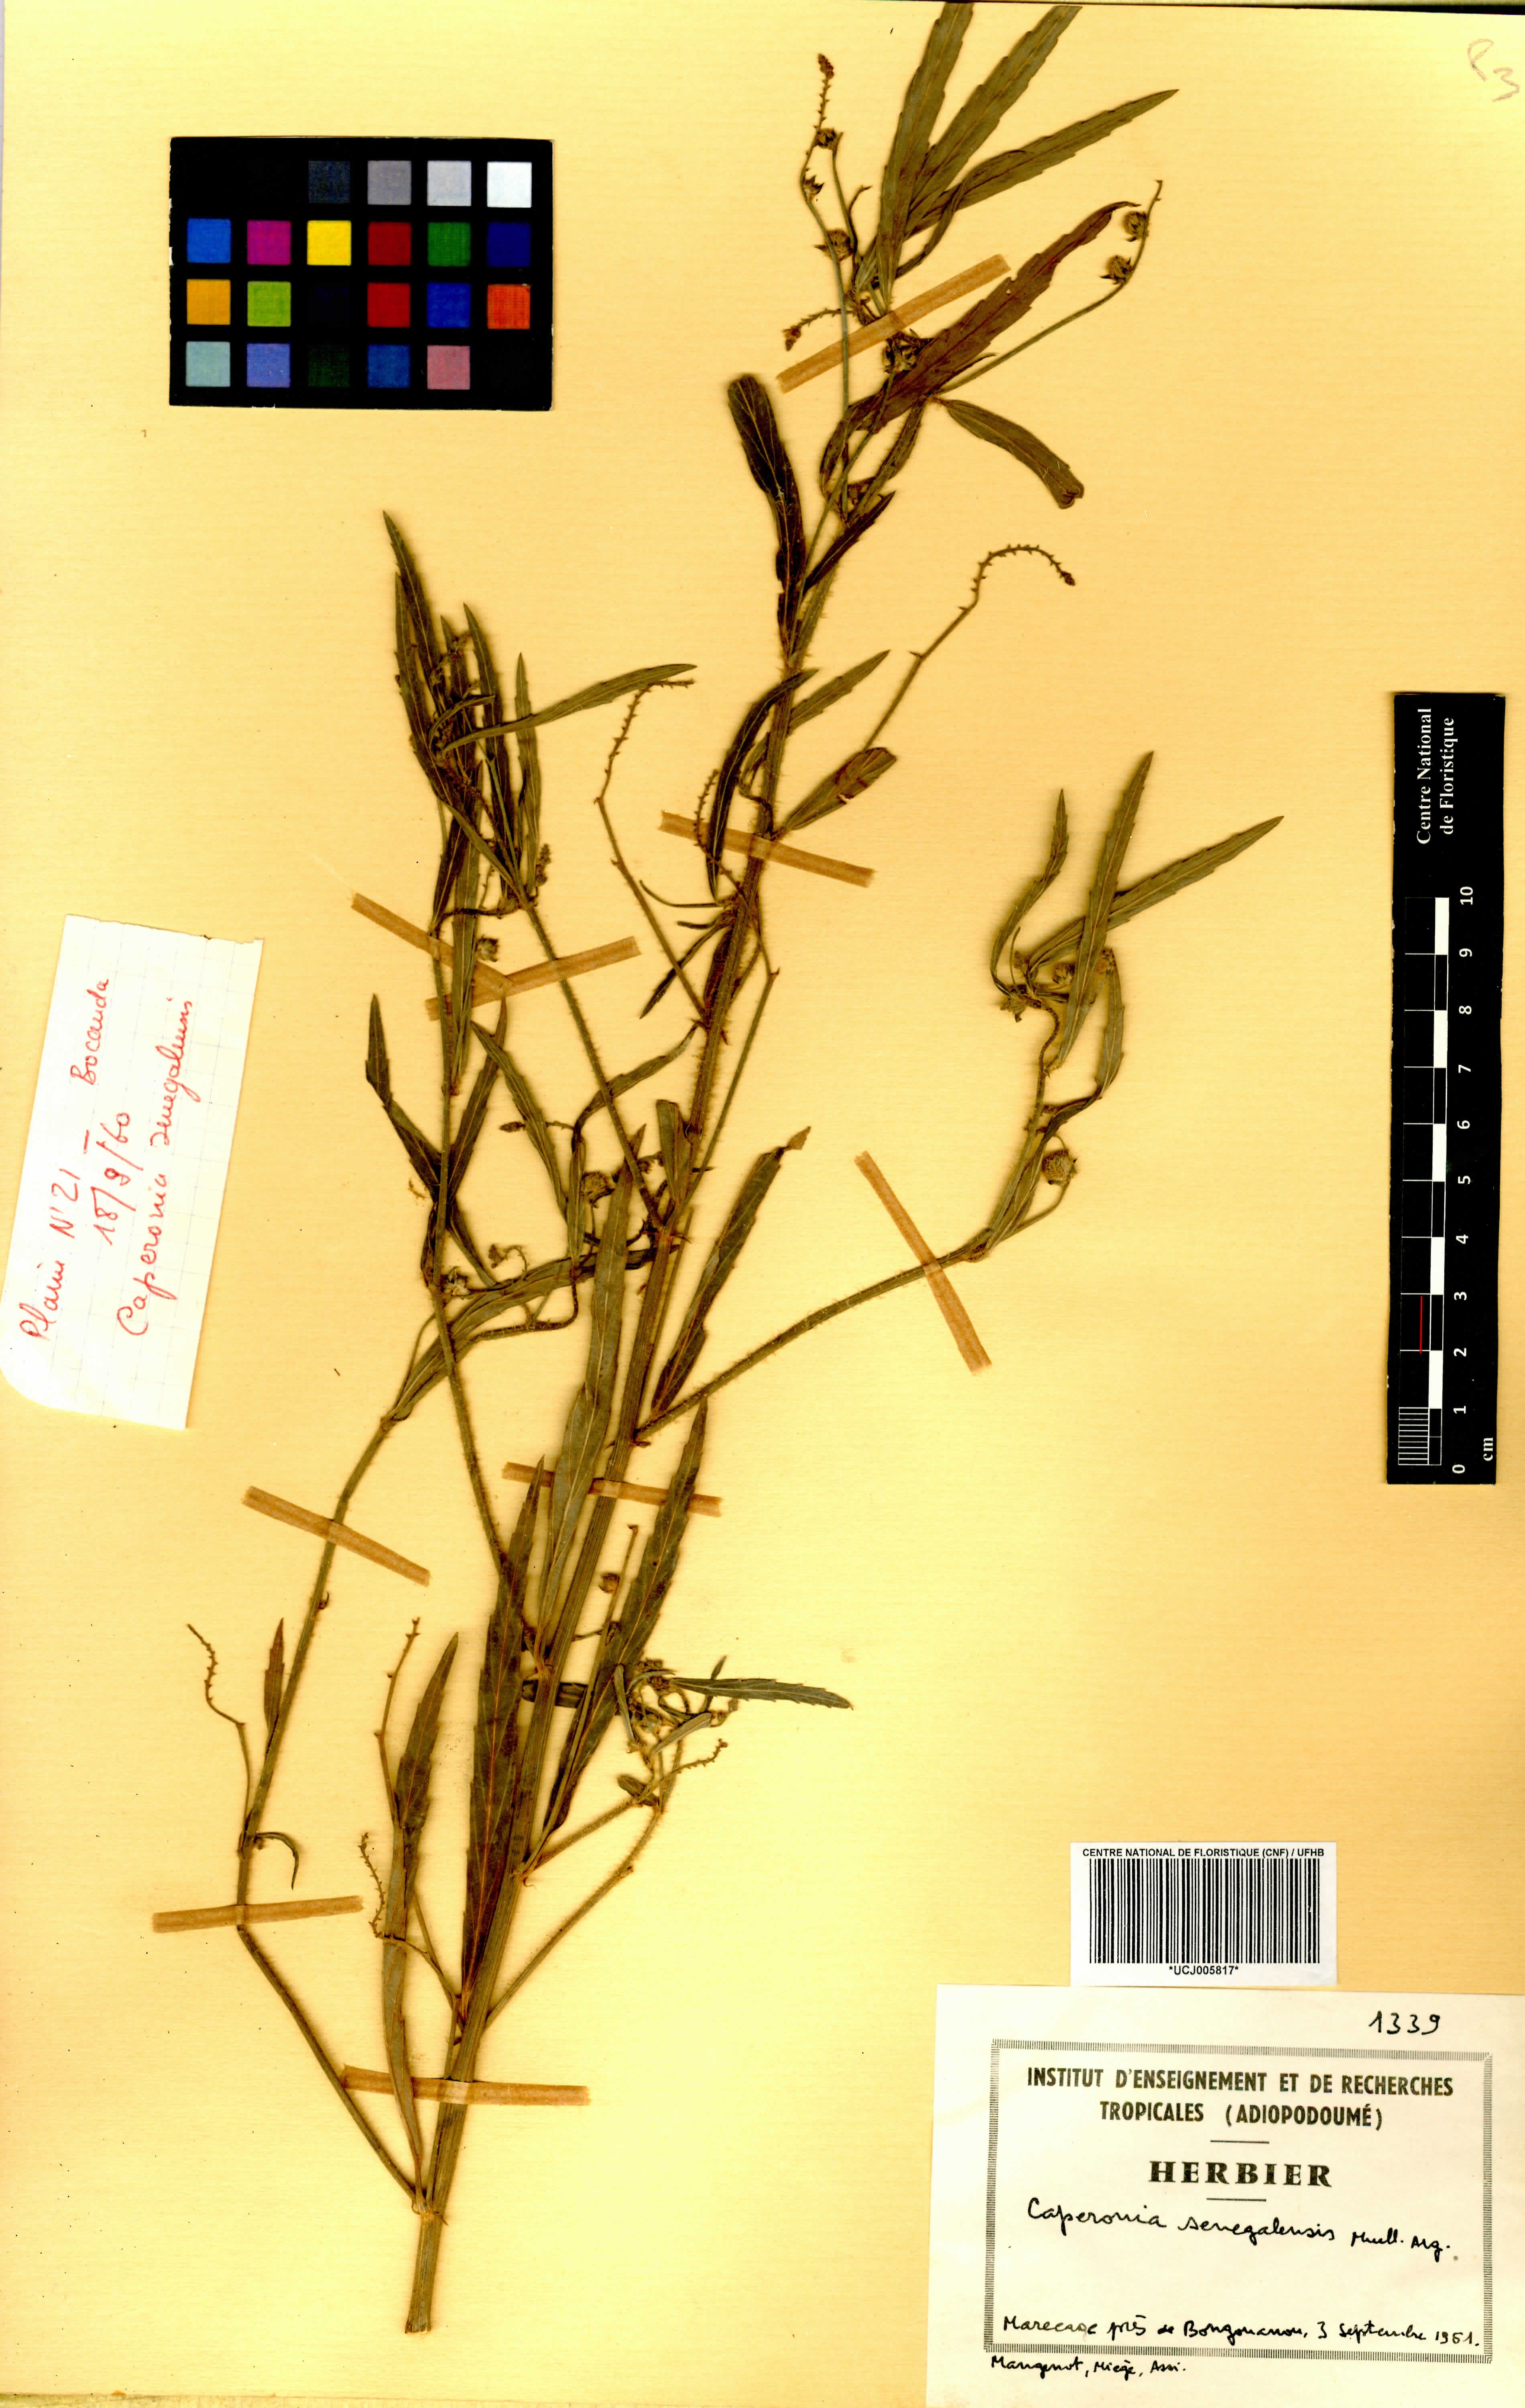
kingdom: Plantae
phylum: Tracheophyta
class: Magnoliopsida
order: Malpighiales
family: Euphorbiaceae
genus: Caperonia
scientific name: Caperonia serrata
